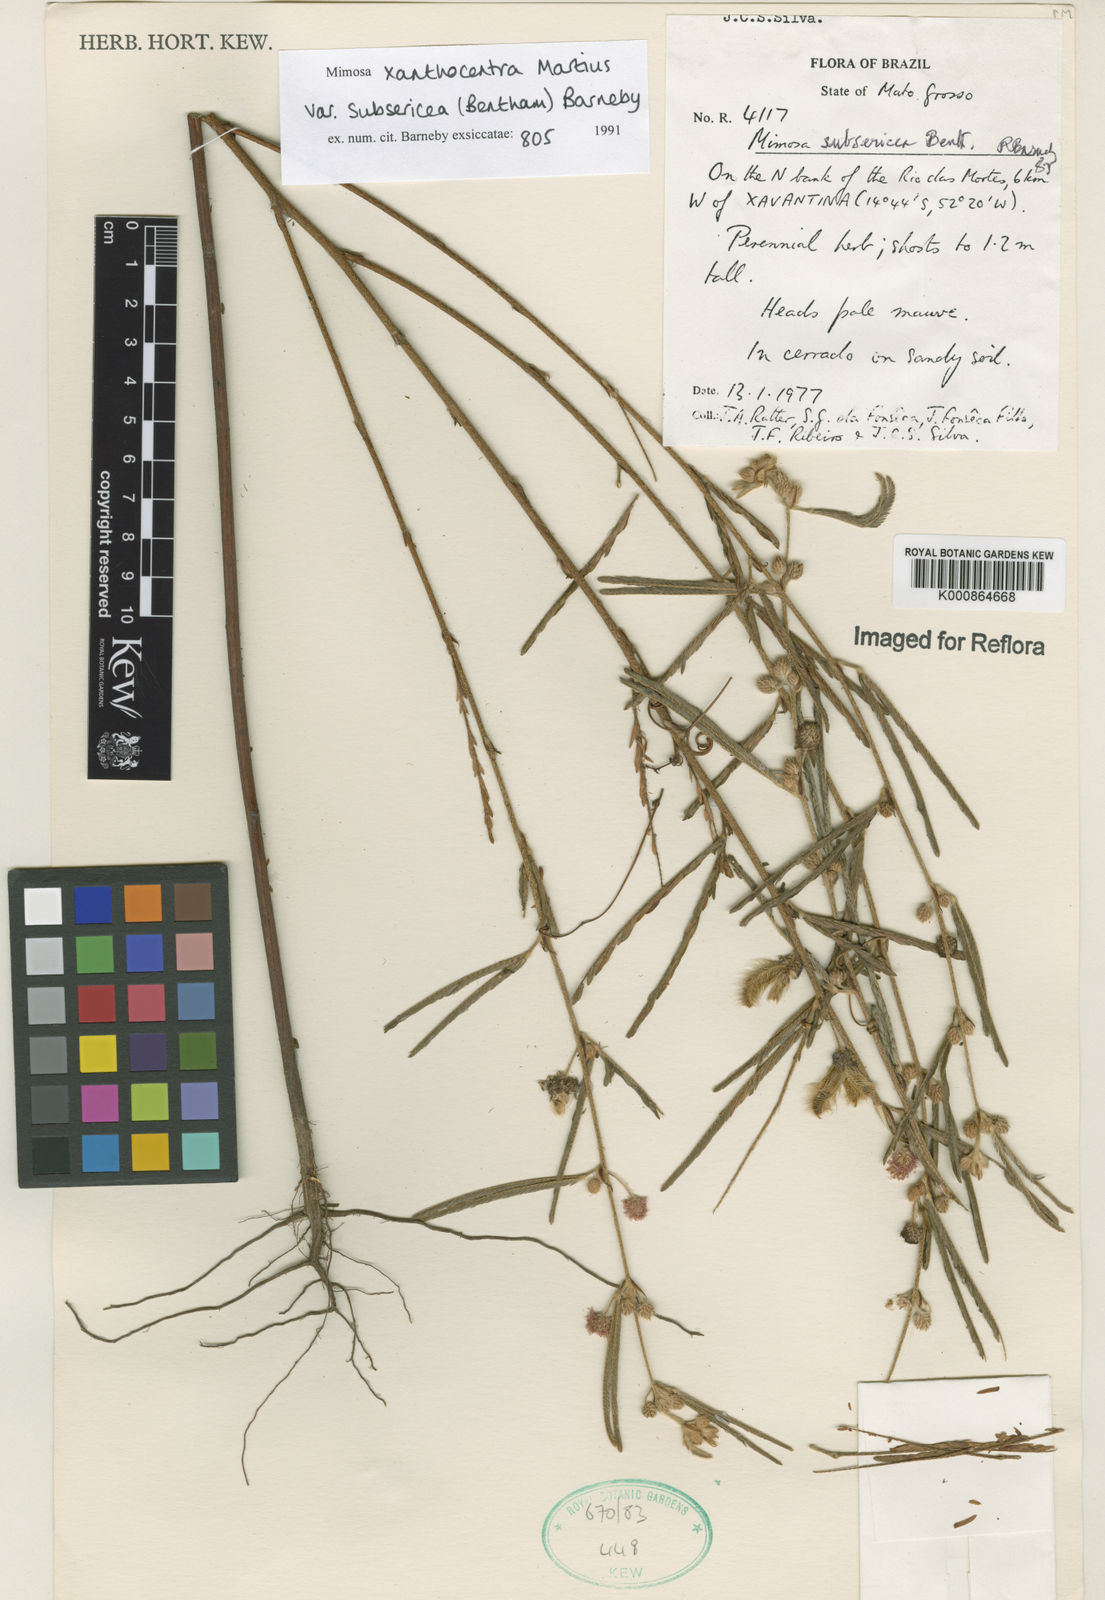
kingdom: Plantae
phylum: Tracheophyta
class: Magnoliopsida
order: Fabales
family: Fabaceae
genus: Mimosa
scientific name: Mimosa xanthocentra
